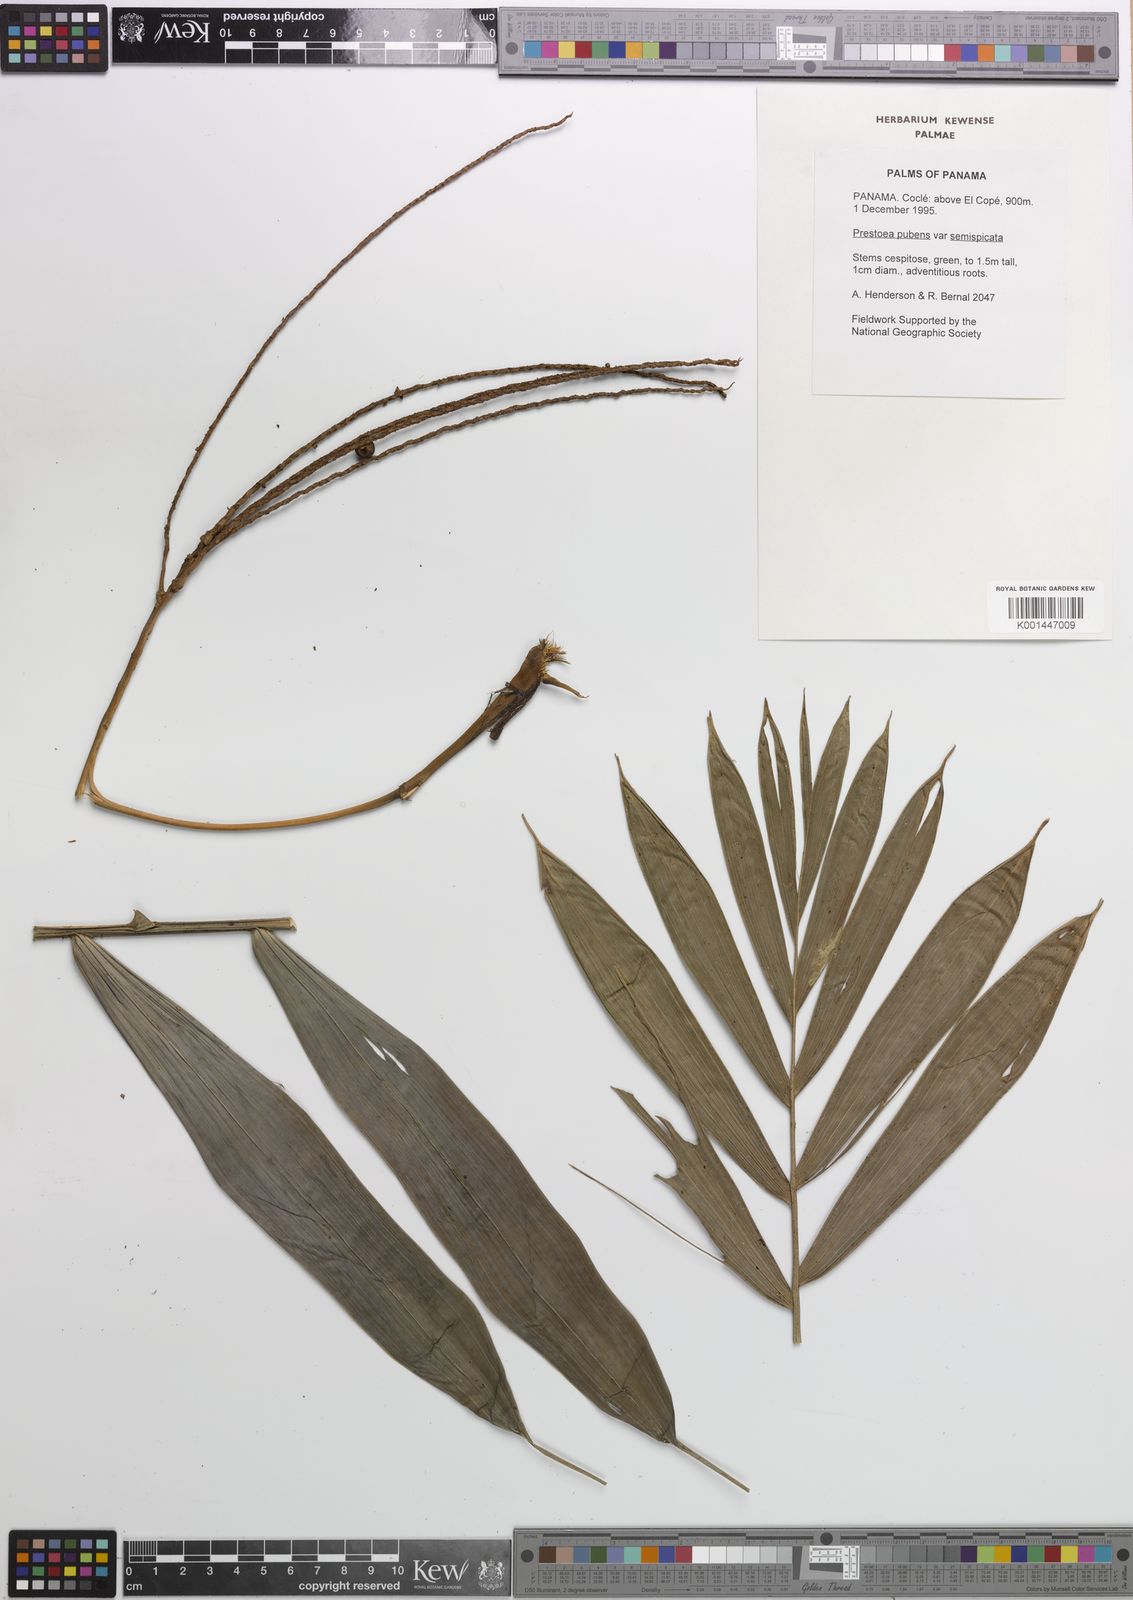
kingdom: Plantae
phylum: Tracheophyta
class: Liliopsida
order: Arecales
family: Arecaceae
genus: Prestoea
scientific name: Prestoea pubens
